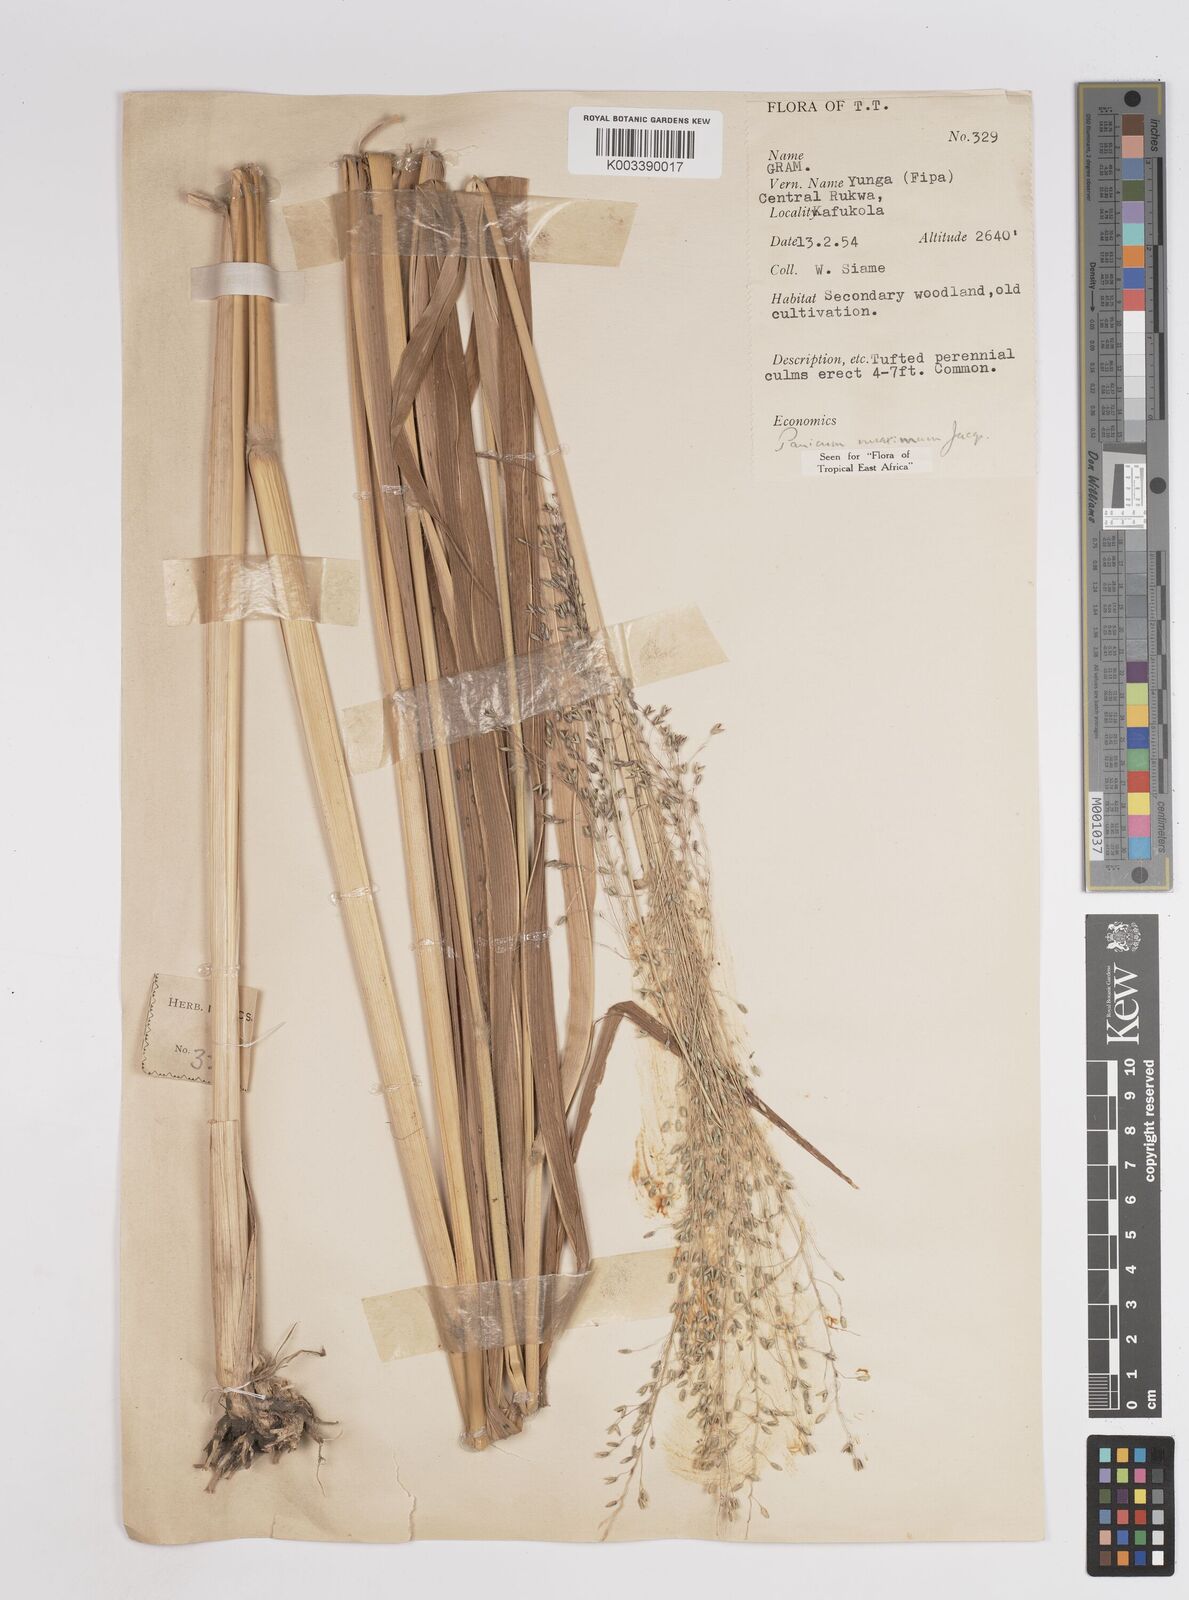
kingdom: Plantae
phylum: Tracheophyta
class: Liliopsida
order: Poales
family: Poaceae
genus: Megathyrsus
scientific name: Megathyrsus maximus
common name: Guineagrass
